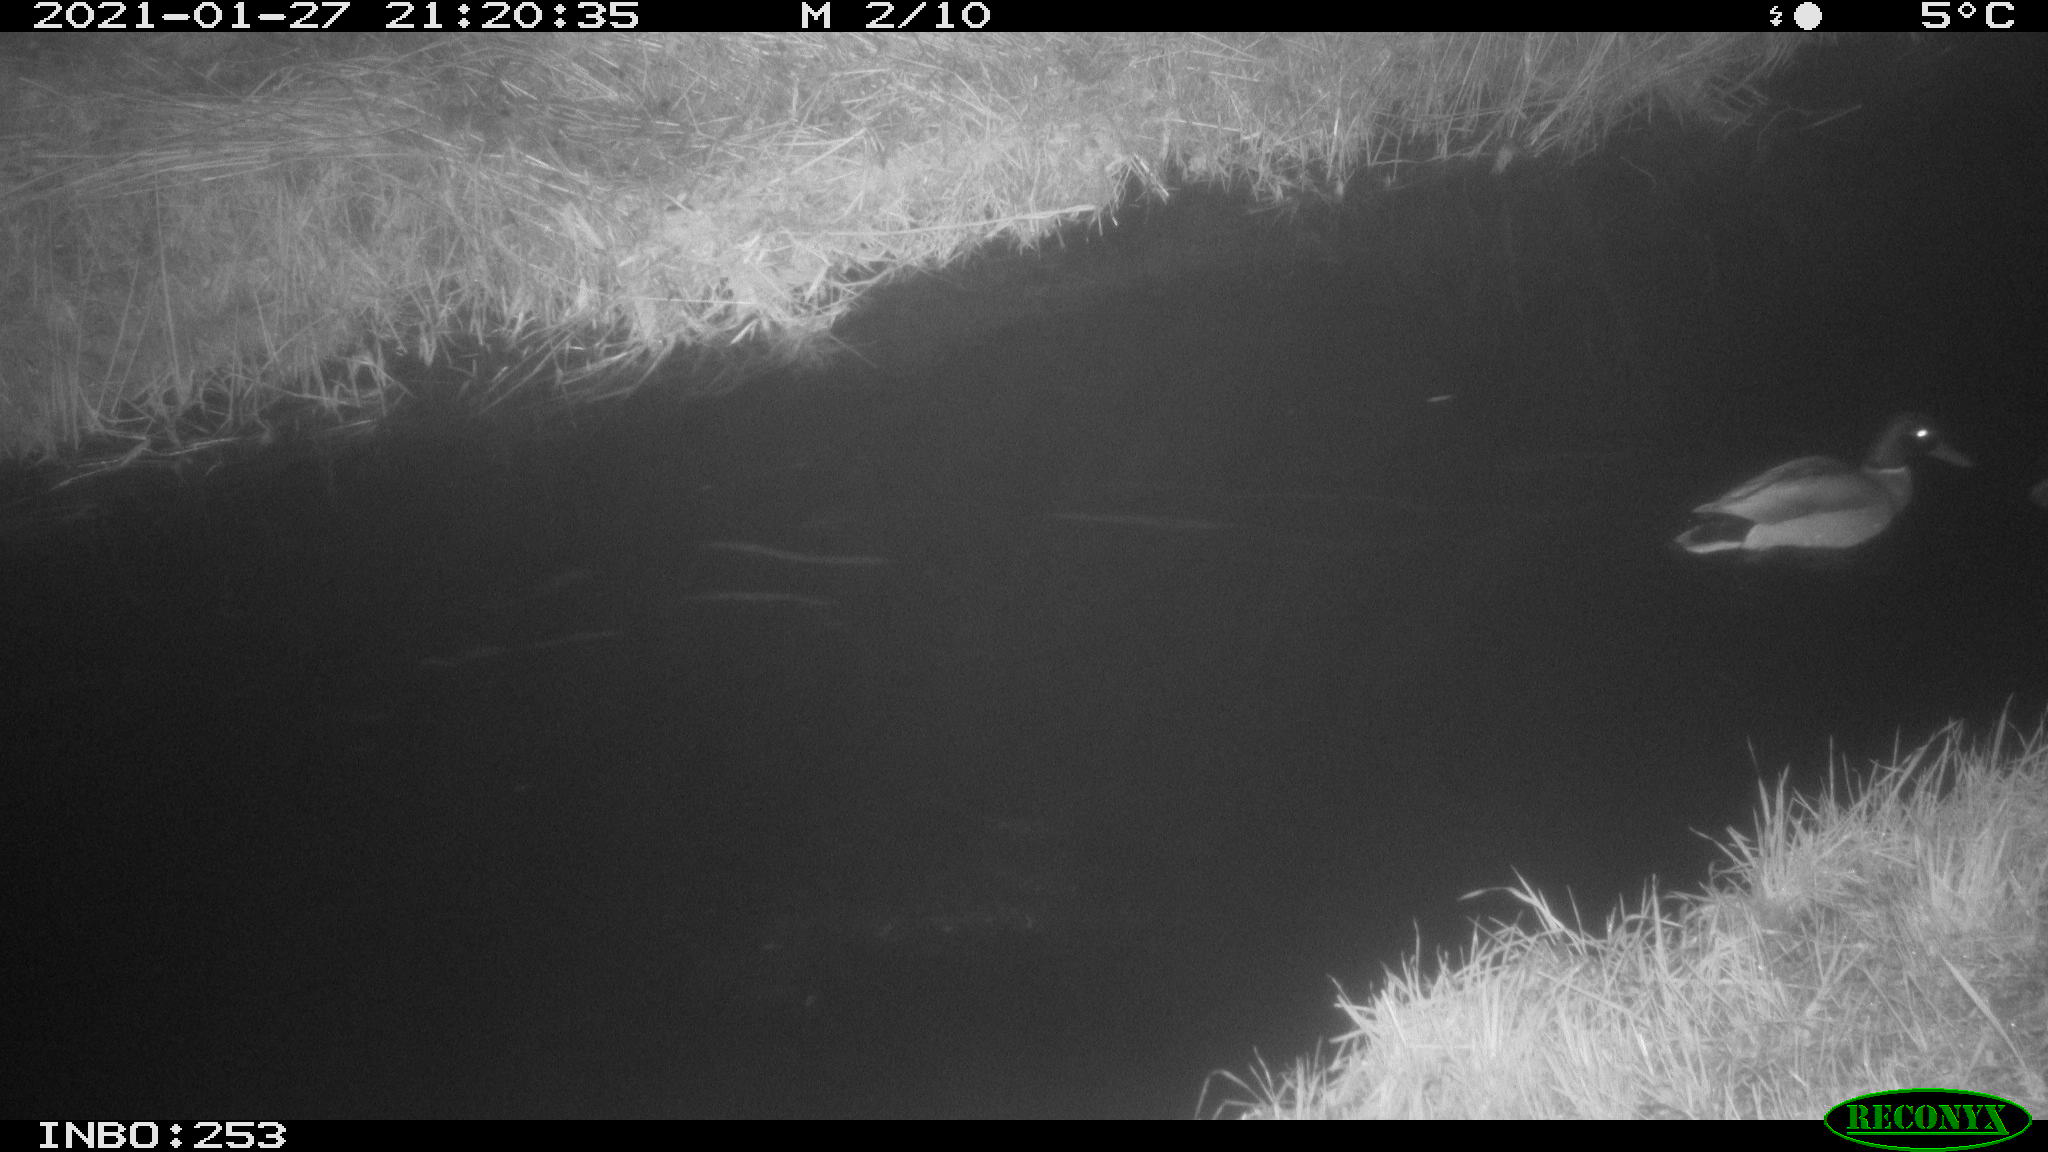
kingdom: Animalia
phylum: Chordata
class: Aves
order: Anseriformes
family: Anatidae
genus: Anas
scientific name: Anas platyrhynchos
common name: Mallard
